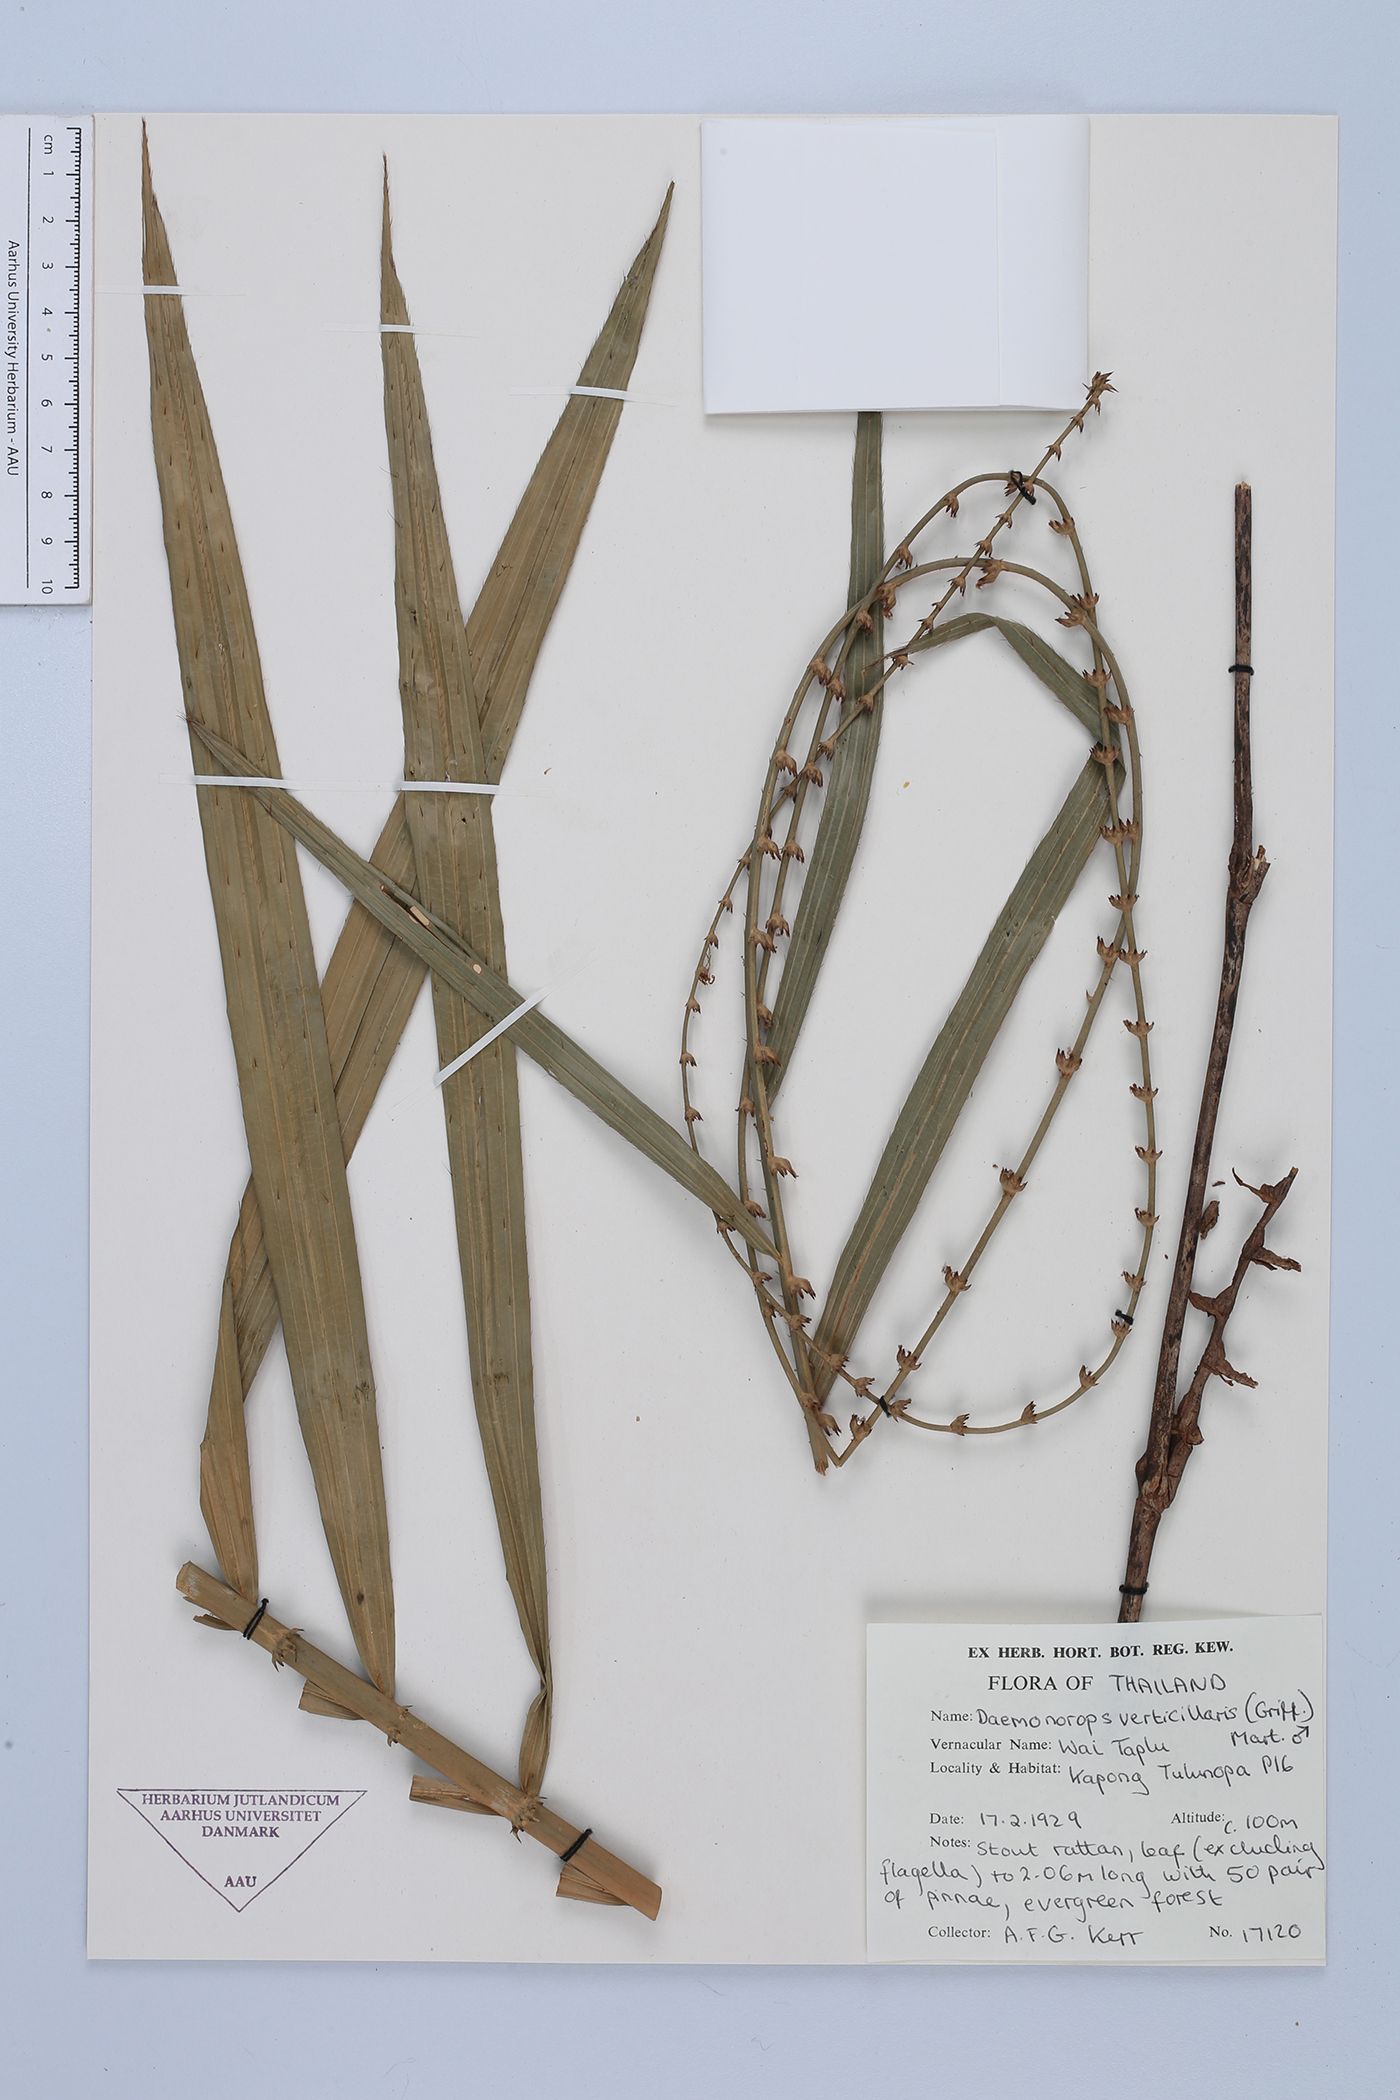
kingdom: Plantae
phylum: Tracheophyta
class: Liliopsida
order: Arecales
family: Arecaceae
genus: Calamus
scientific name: Calamus verticillaris
